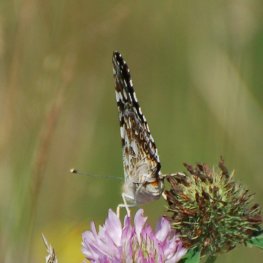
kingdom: Animalia
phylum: Arthropoda
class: Insecta
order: Lepidoptera
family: Nymphalidae
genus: Vanessa
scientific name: Vanessa cardui
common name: Painted Lady
